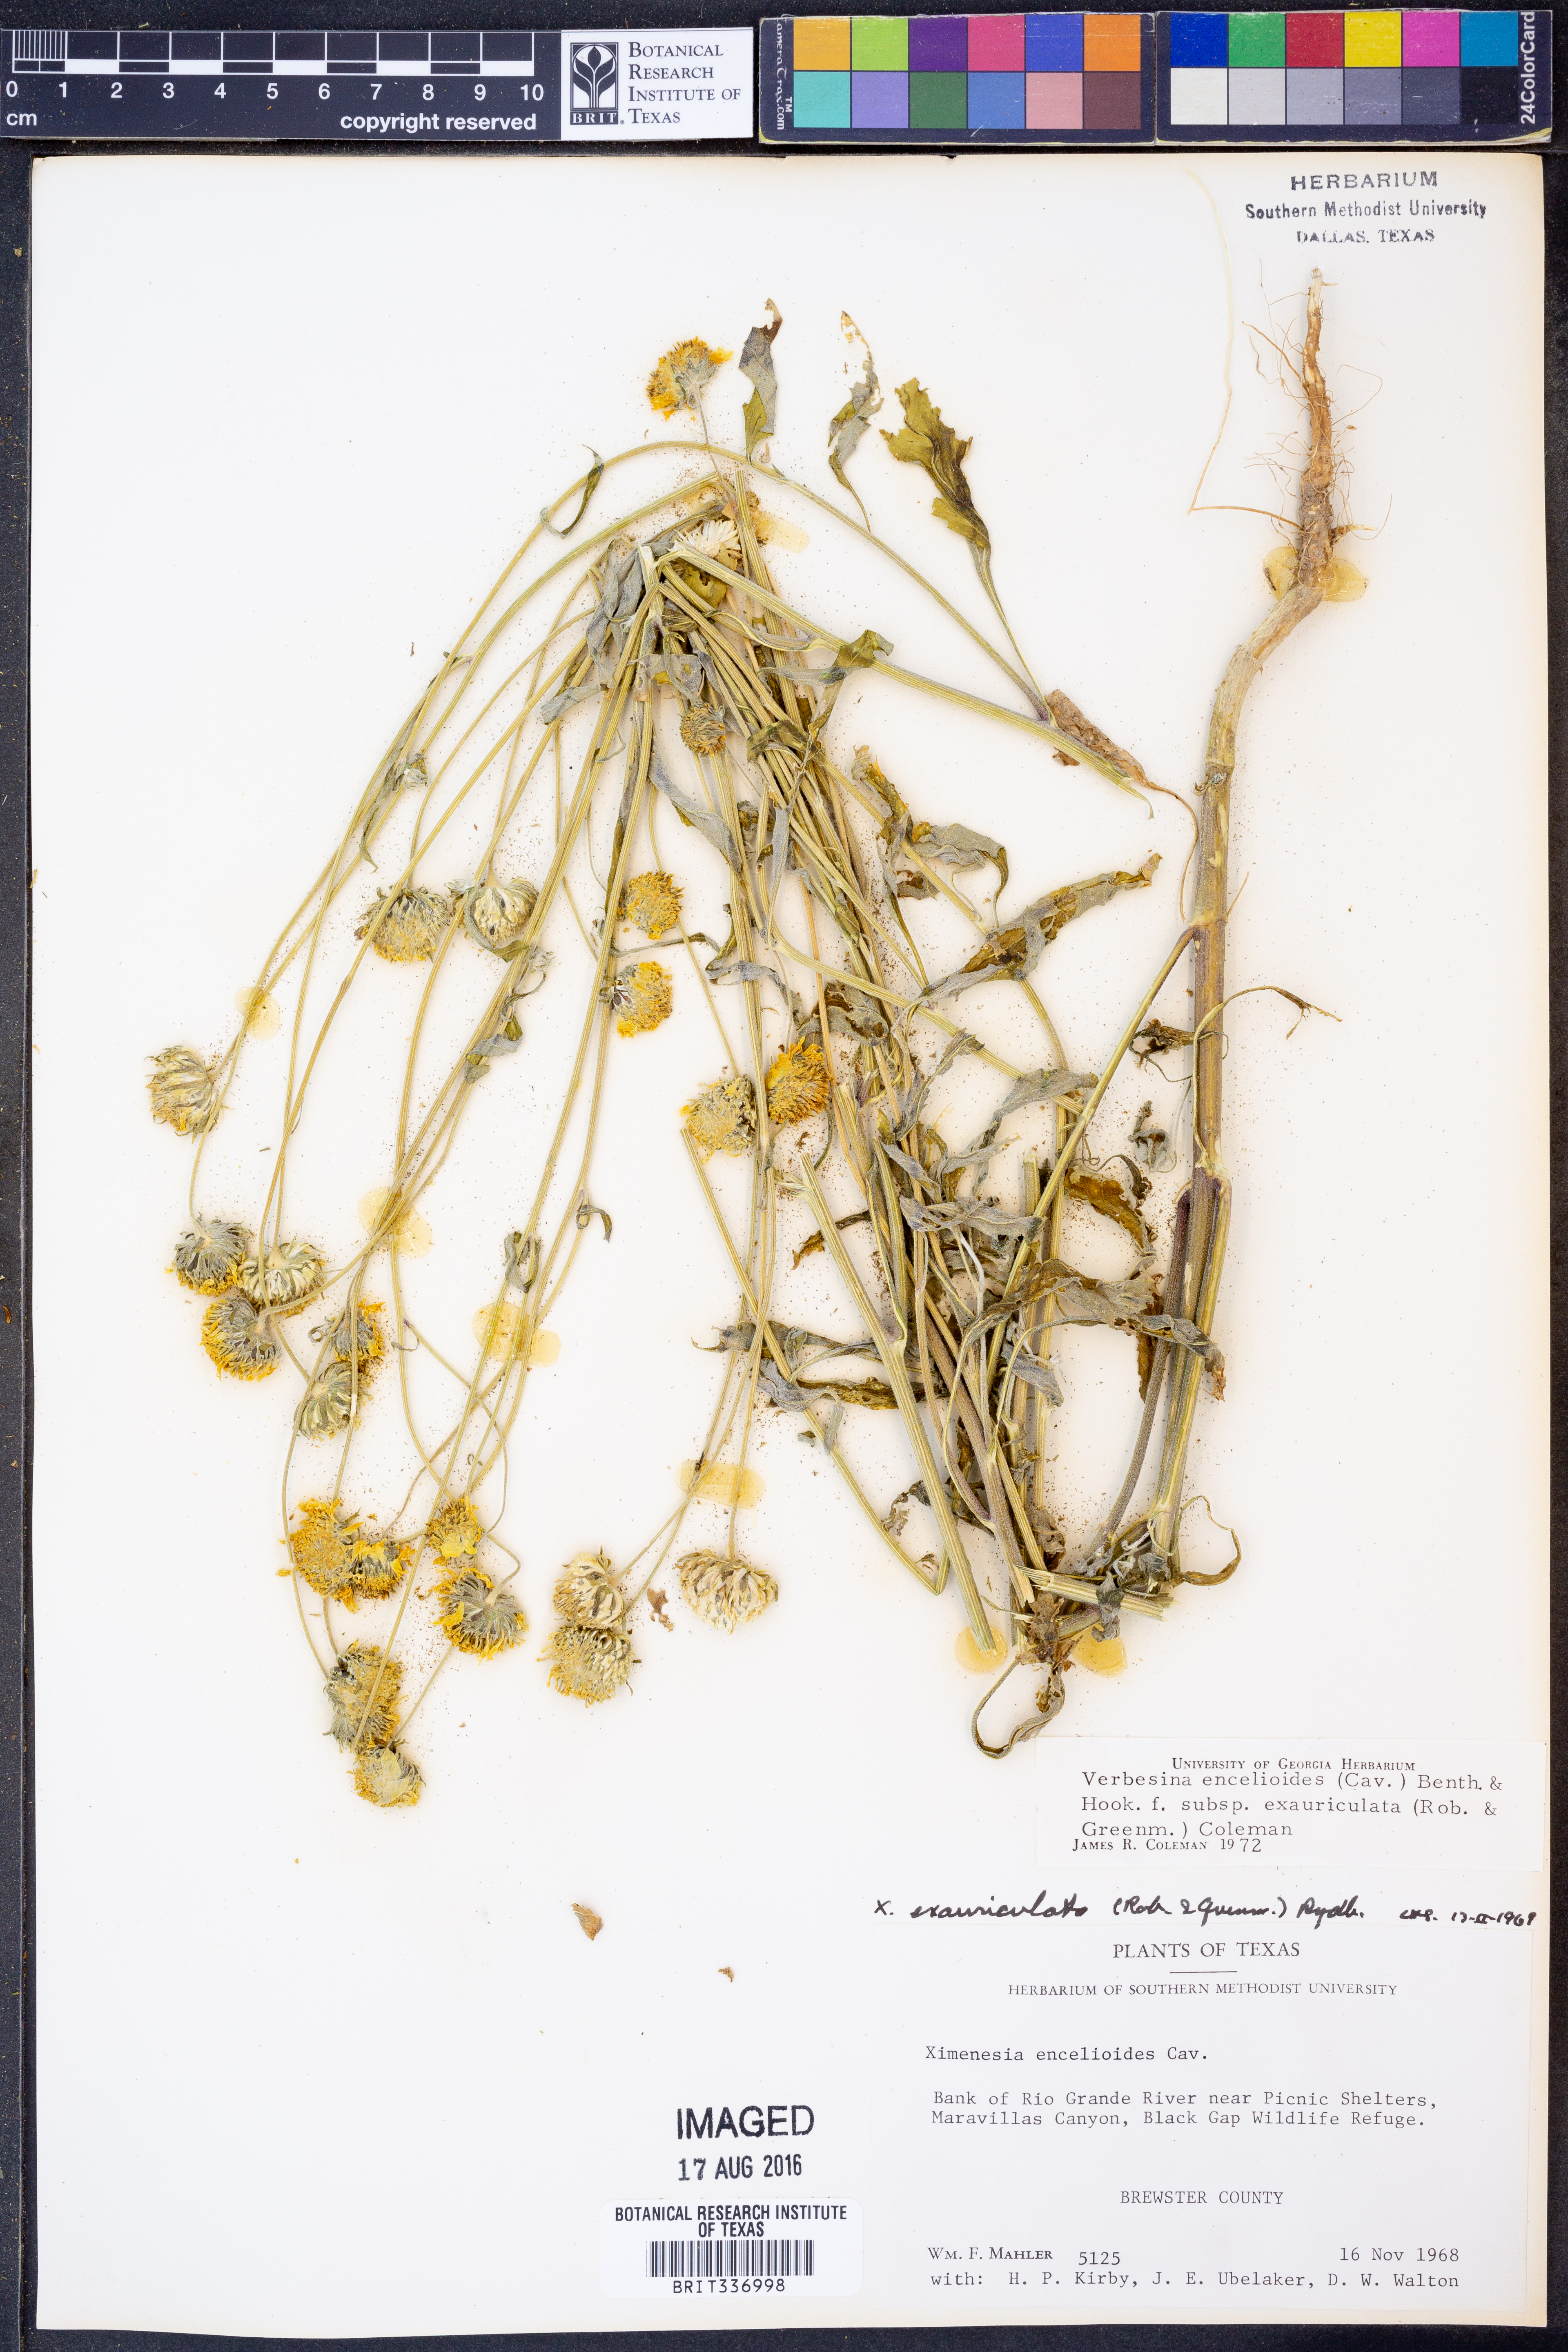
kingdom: Plantae
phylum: Tracheophyta
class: Magnoliopsida
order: Asterales
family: Asteraceae
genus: Verbesina
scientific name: Verbesina encelioides
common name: Golden crownbeard
